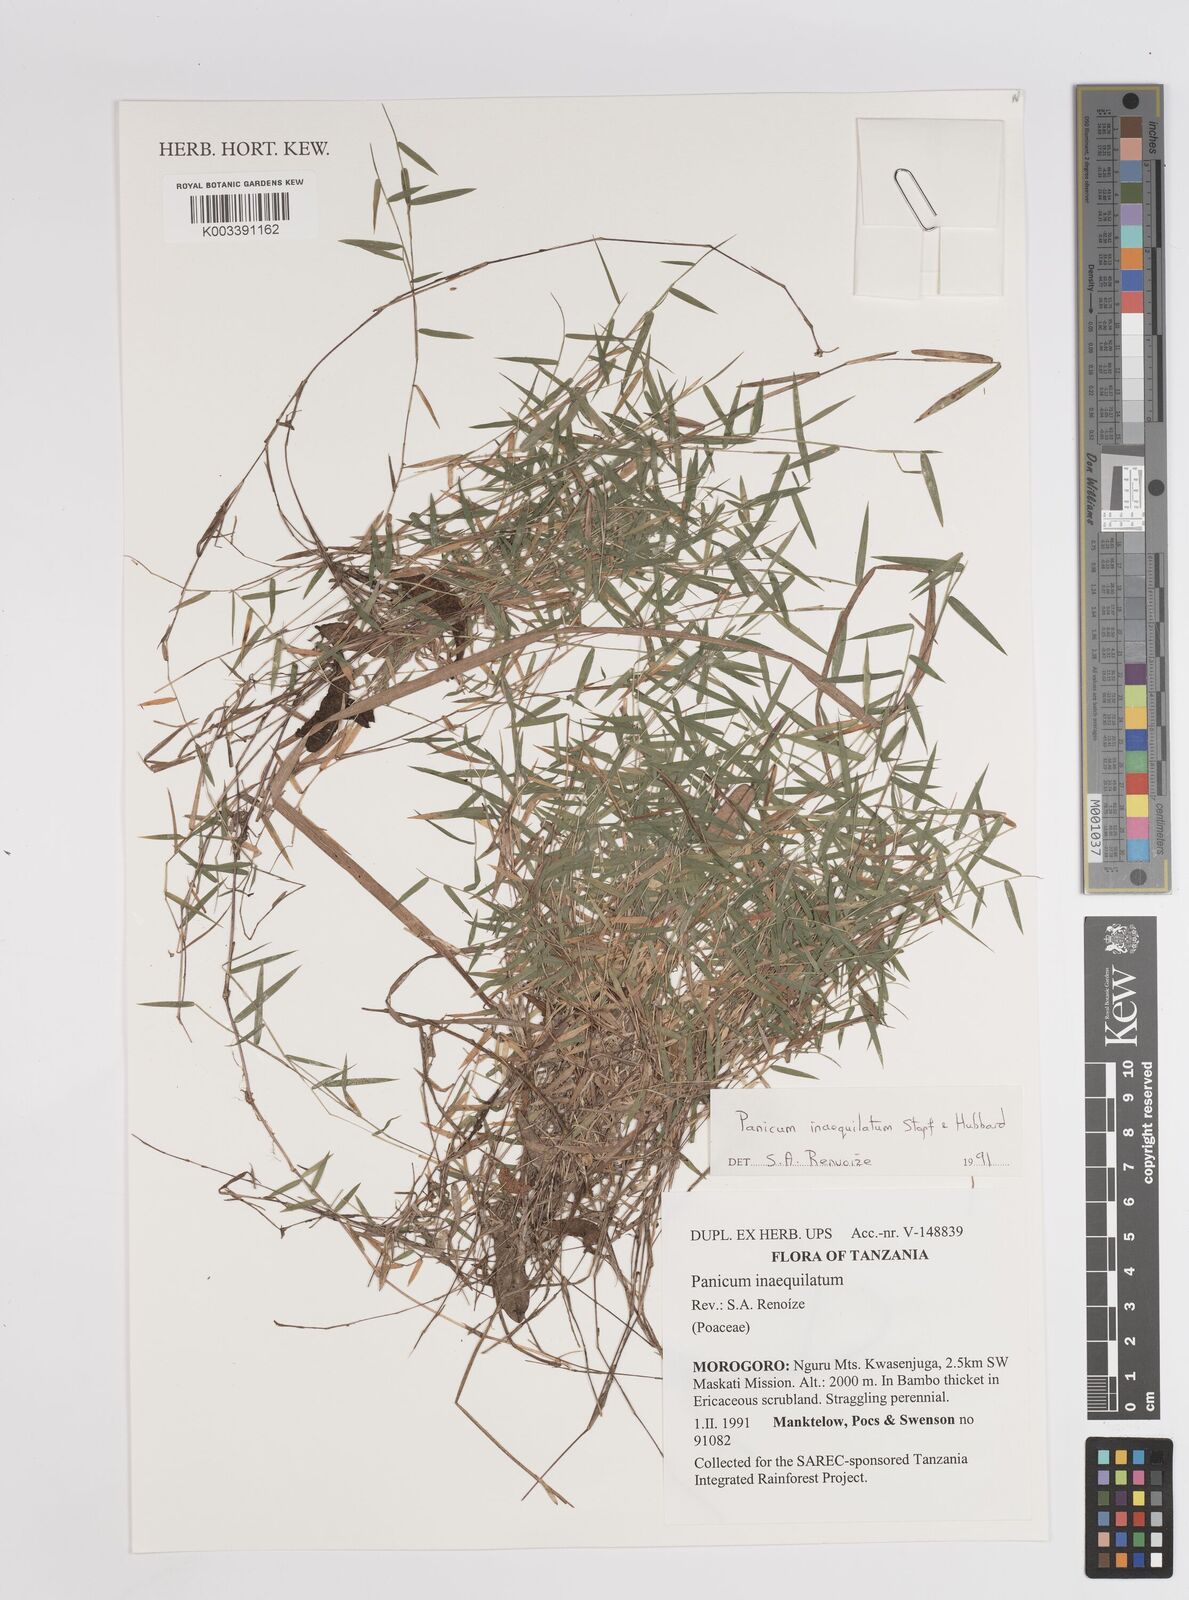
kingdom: Plantae
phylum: Tracheophyta
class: Liliopsida
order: Poales
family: Poaceae
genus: Panicum
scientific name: Panicum inaequilatum
